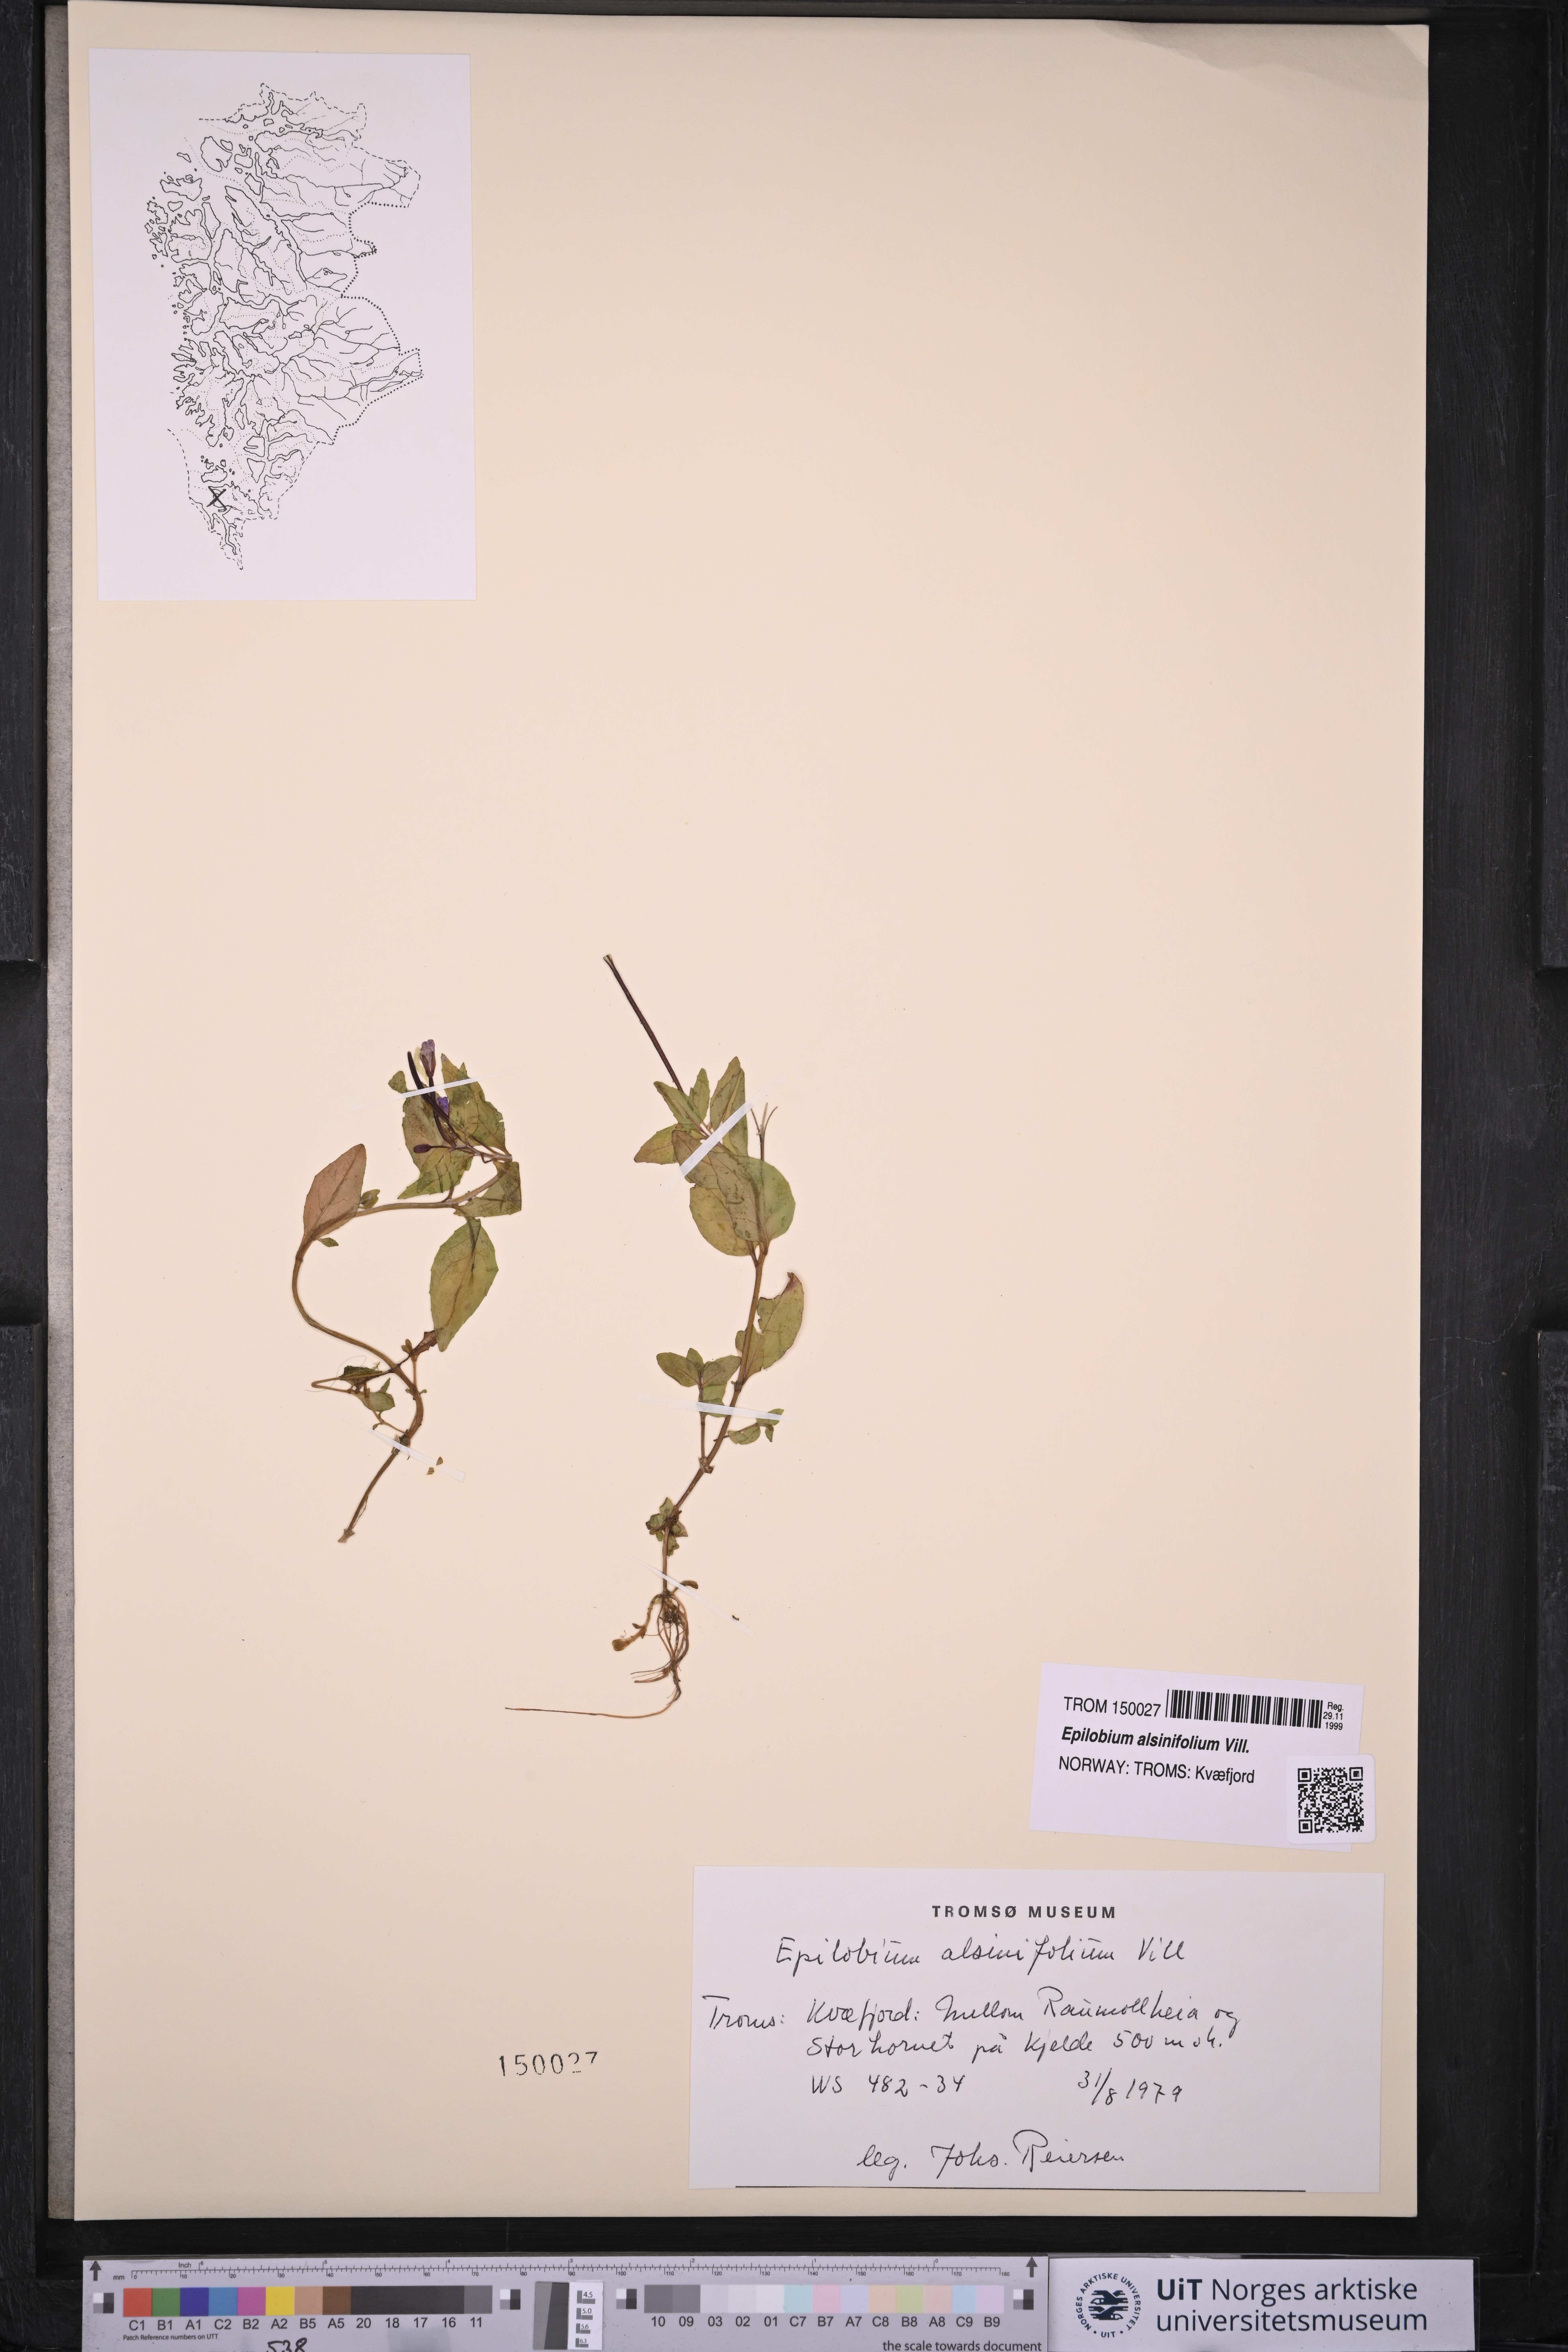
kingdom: Plantae
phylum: Tracheophyta
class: Magnoliopsida
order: Myrtales
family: Onagraceae
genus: Epilobium
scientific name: Epilobium alsinifolium
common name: Chickweed willowherb
